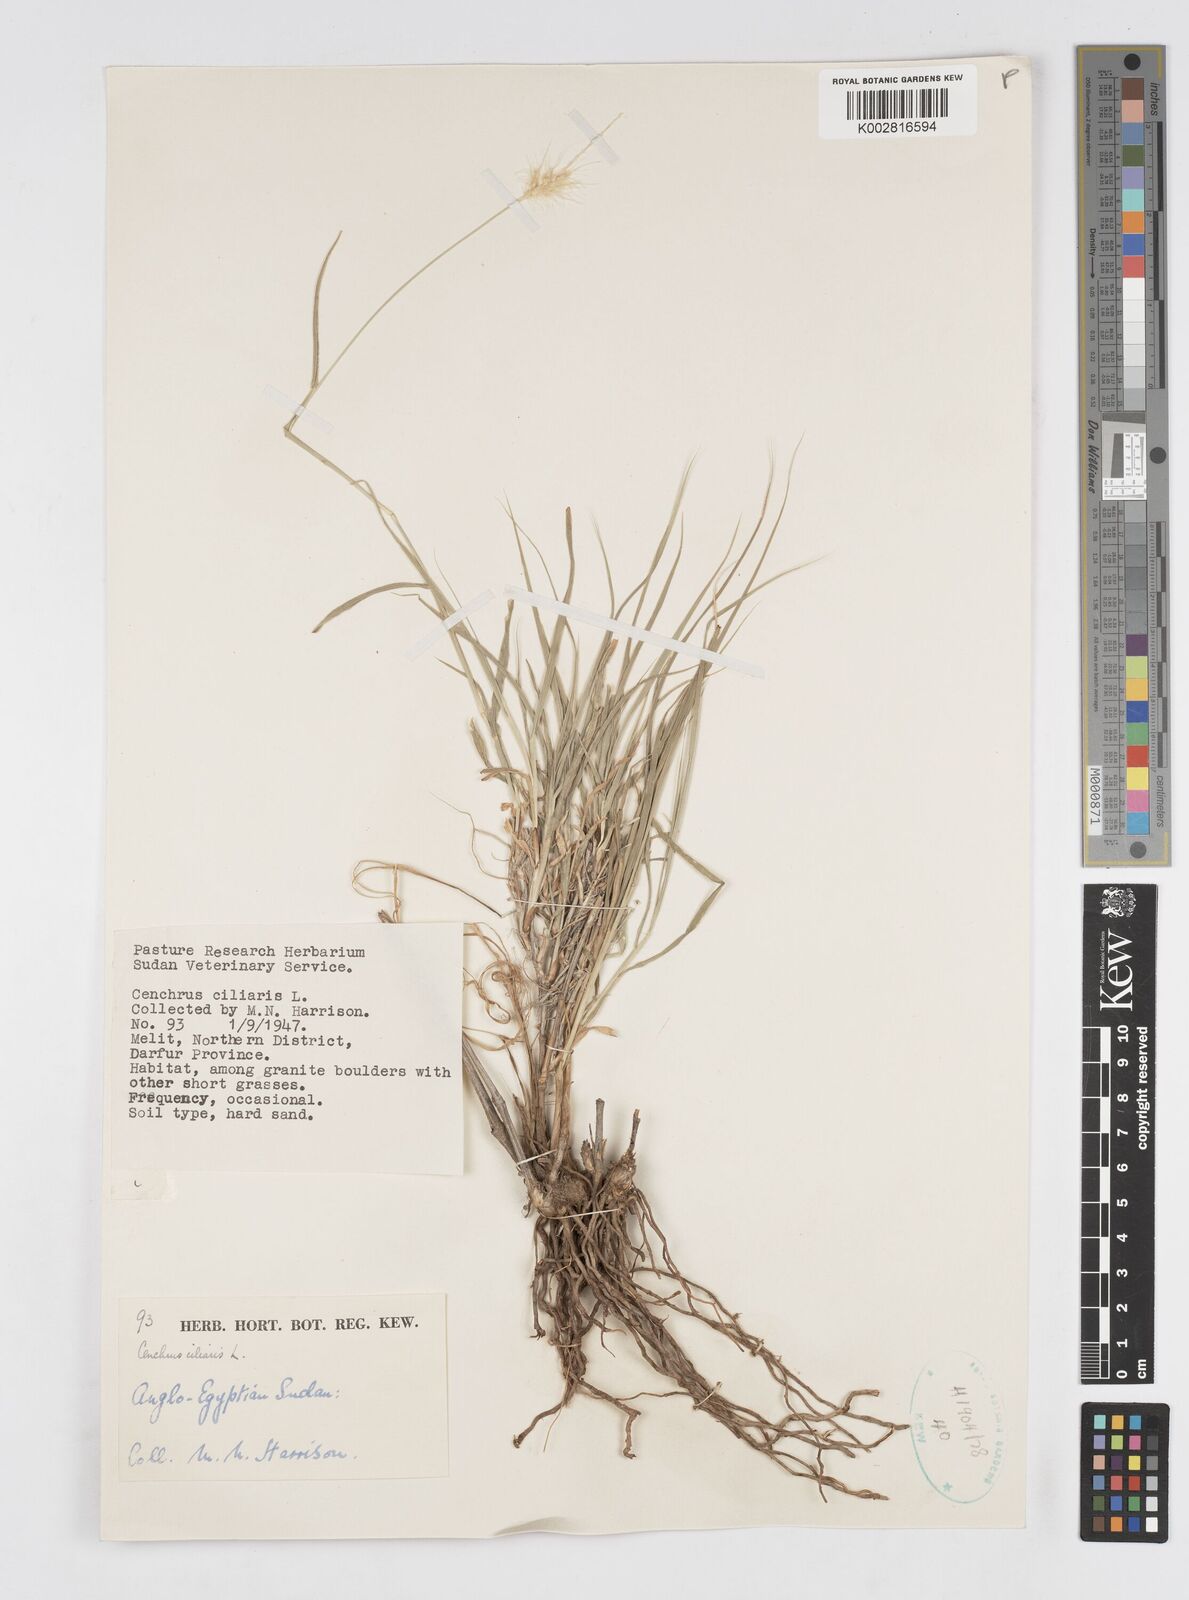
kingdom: Plantae
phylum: Tracheophyta
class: Liliopsida
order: Poales
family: Poaceae
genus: Cenchrus
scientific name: Cenchrus ciliaris
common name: Buffelgrass
